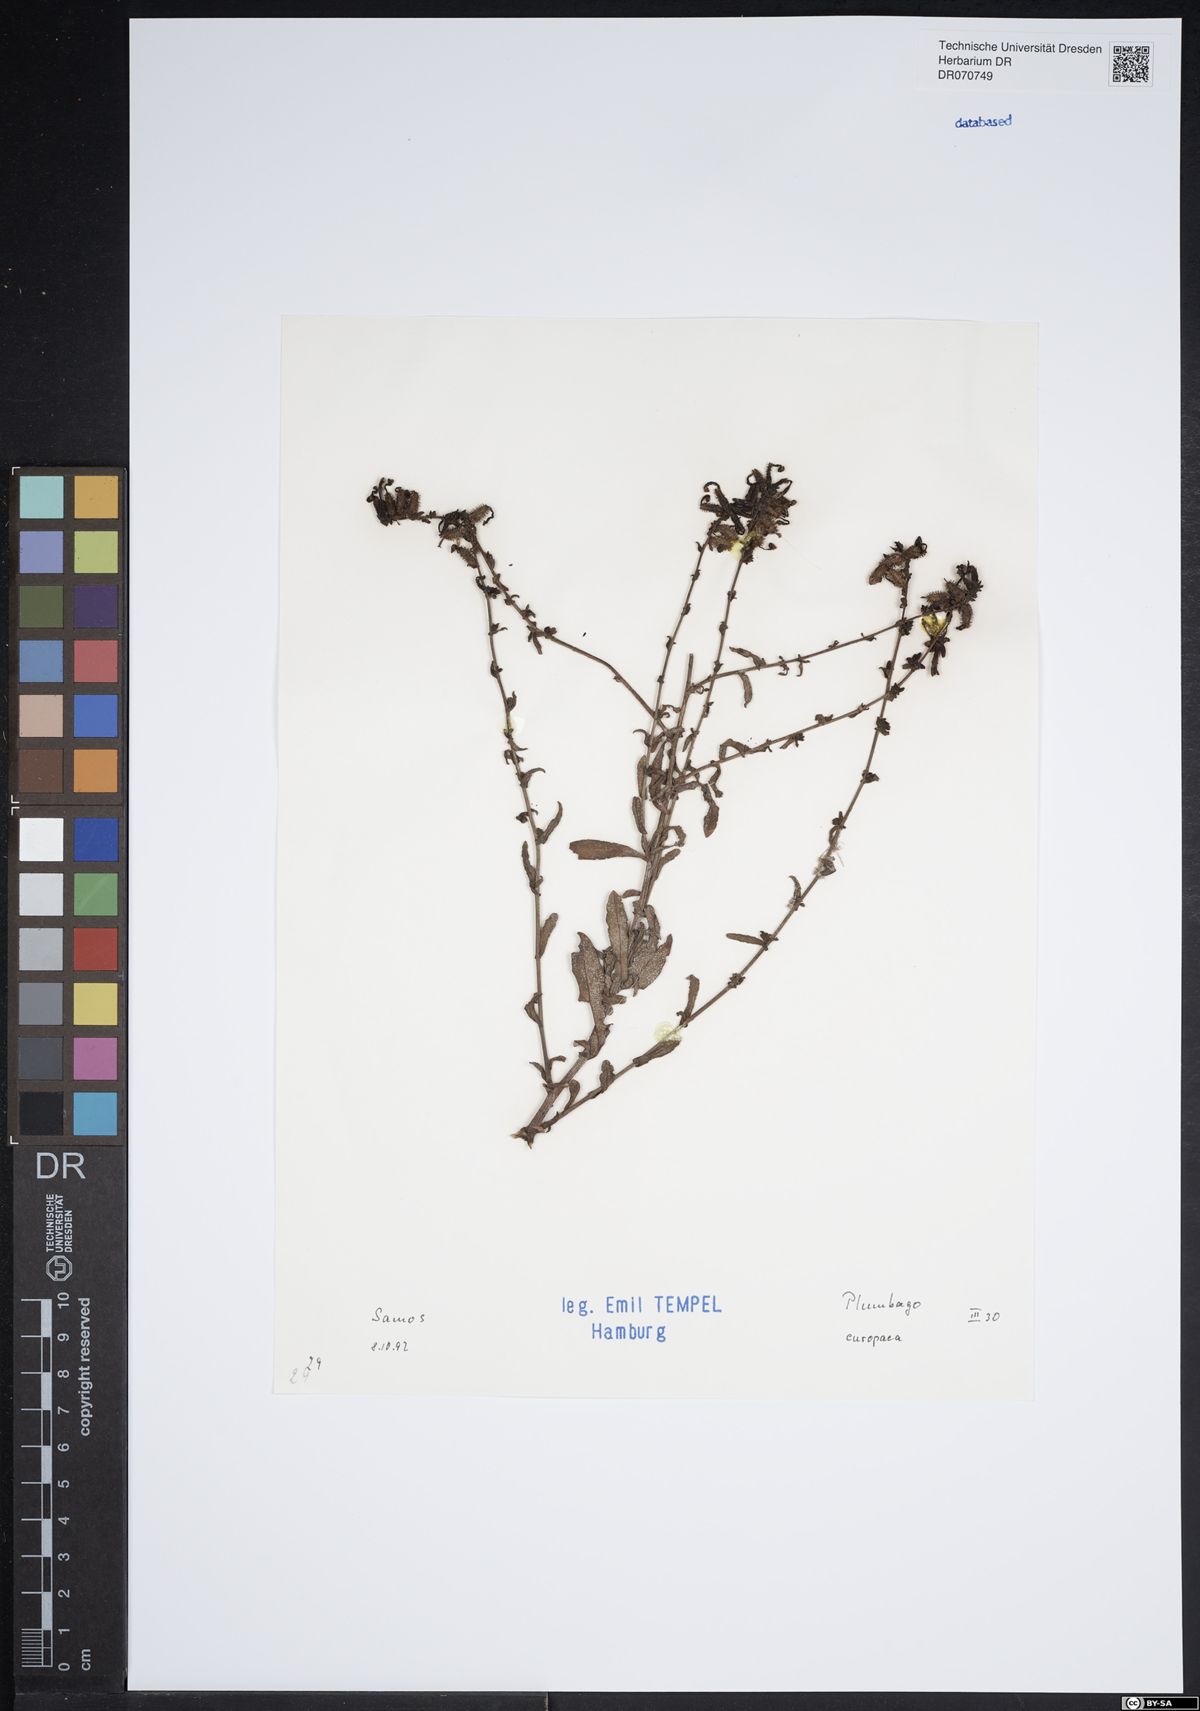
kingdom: Plantae
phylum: Tracheophyta
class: Magnoliopsida
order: Caryophyllales
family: Plumbaginaceae
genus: Plumbago
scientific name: Plumbago europaea
